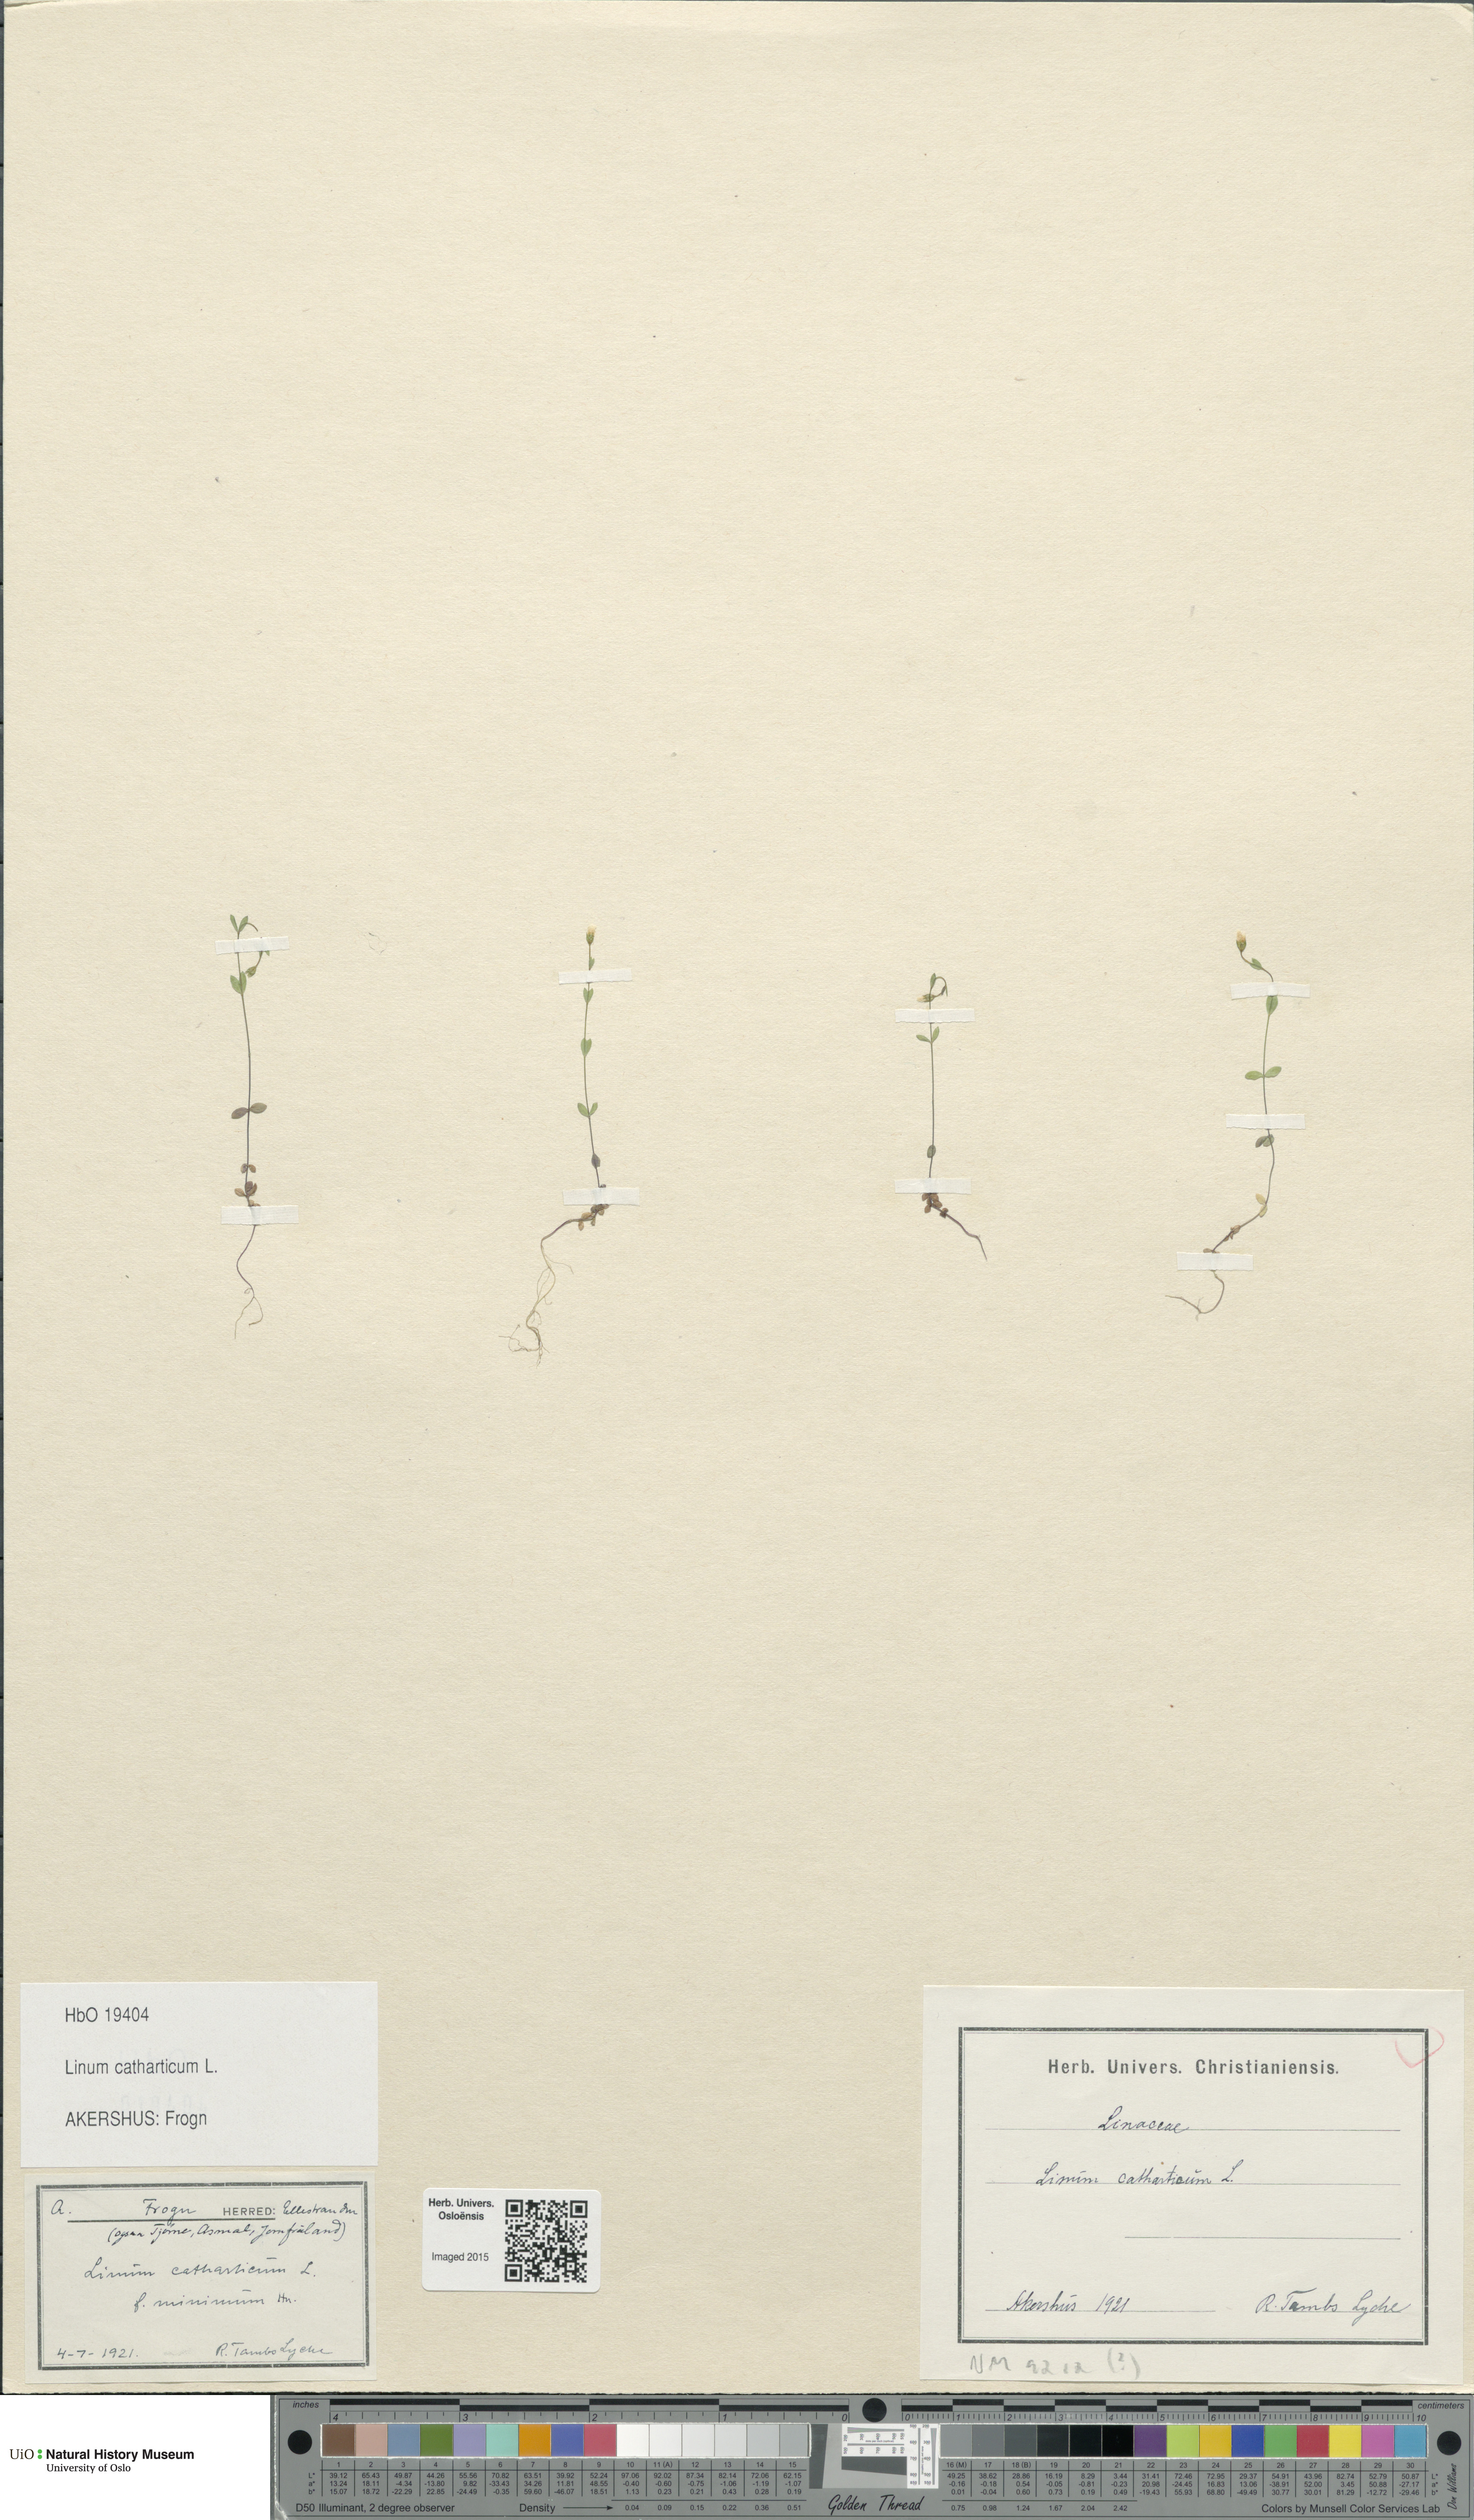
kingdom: Plantae
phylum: Tracheophyta
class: Magnoliopsida
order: Malpighiales
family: Linaceae
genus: Linum
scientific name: Linum catharticum
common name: Fairy flax
